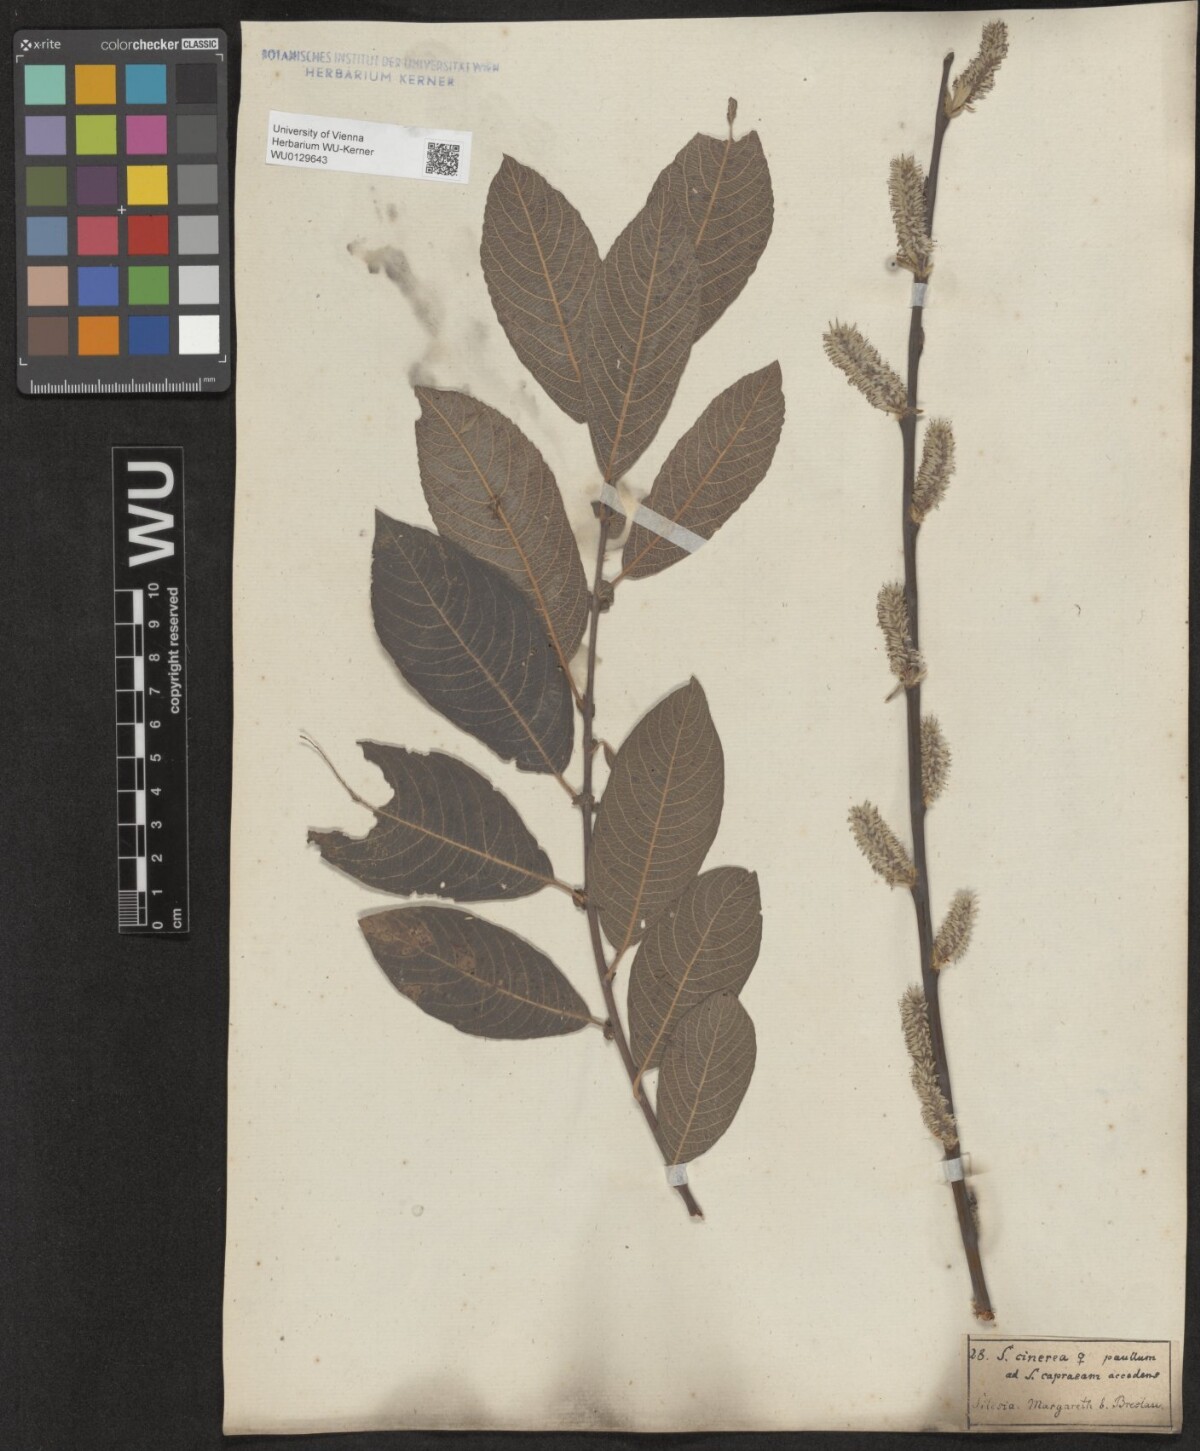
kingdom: Plantae
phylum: Tracheophyta
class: Magnoliopsida
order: Malpighiales
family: Salicaceae
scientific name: Salicaceae
